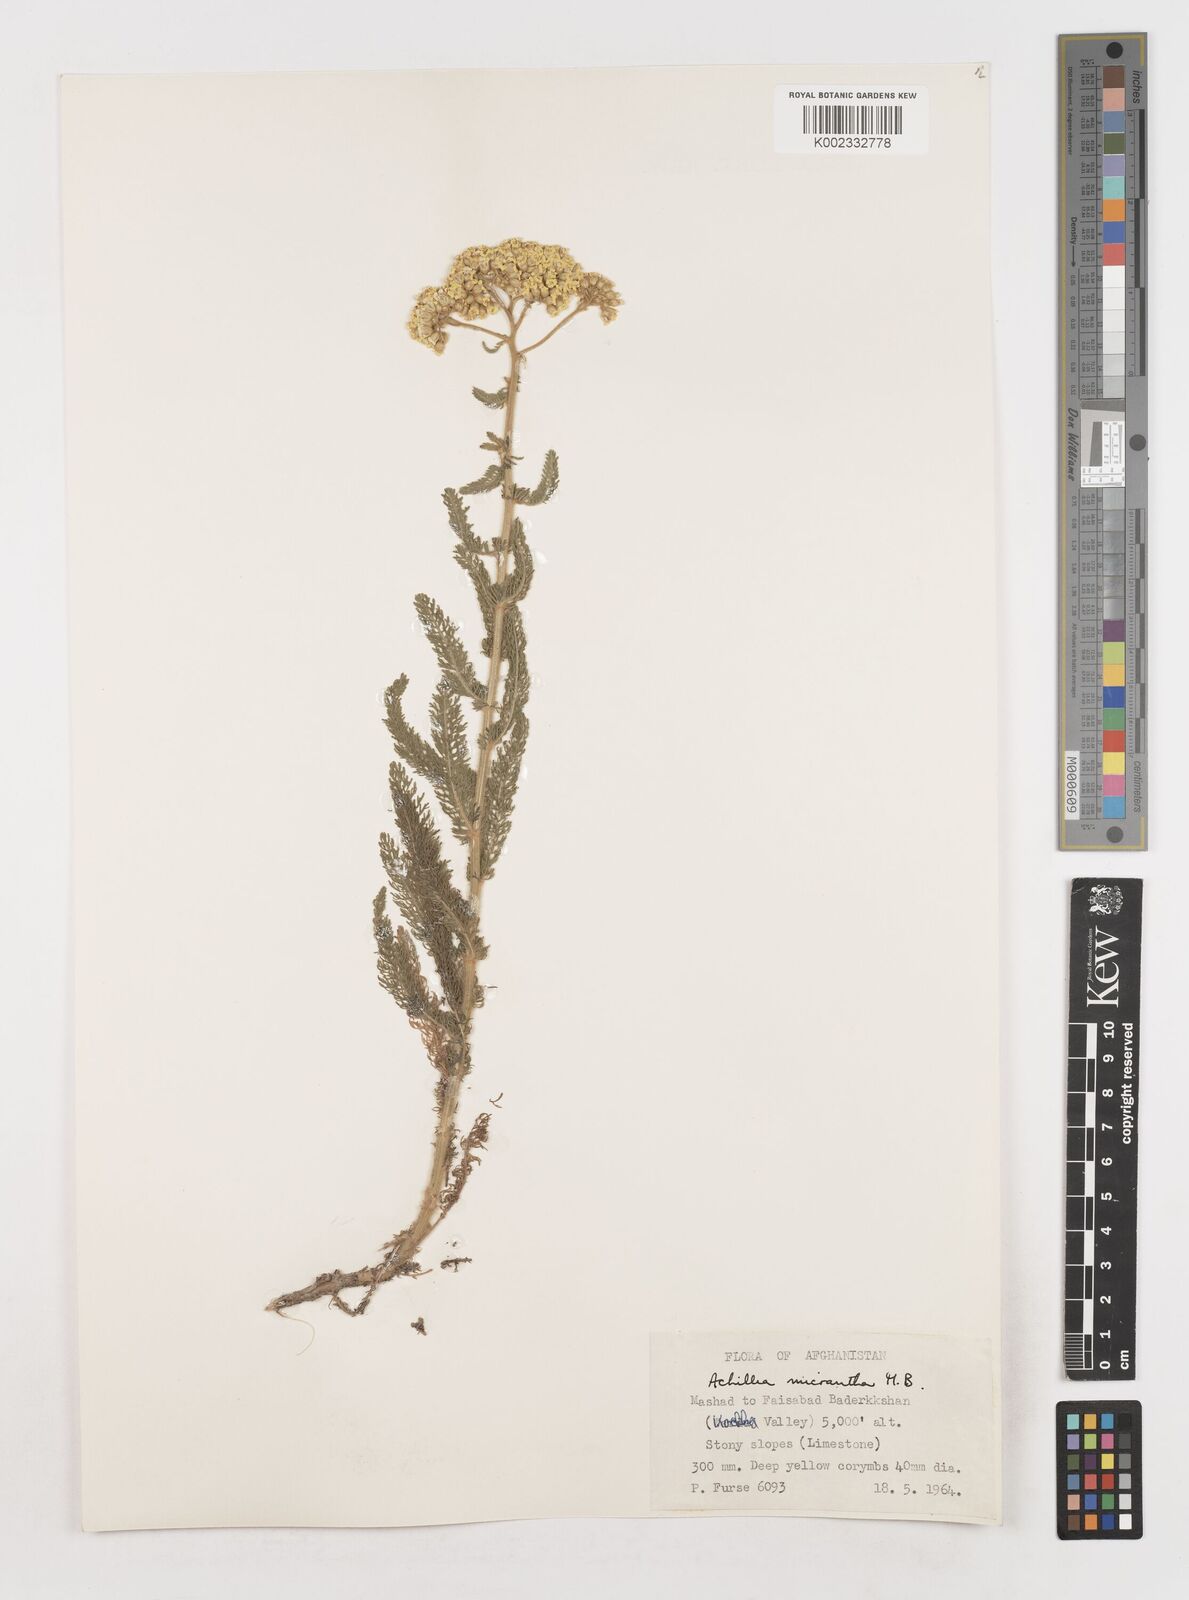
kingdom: Plantae
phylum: Tracheophyta
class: Magnoliopsida
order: Asterales
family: Asteraceae
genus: Achillea
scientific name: Achillea arabica
